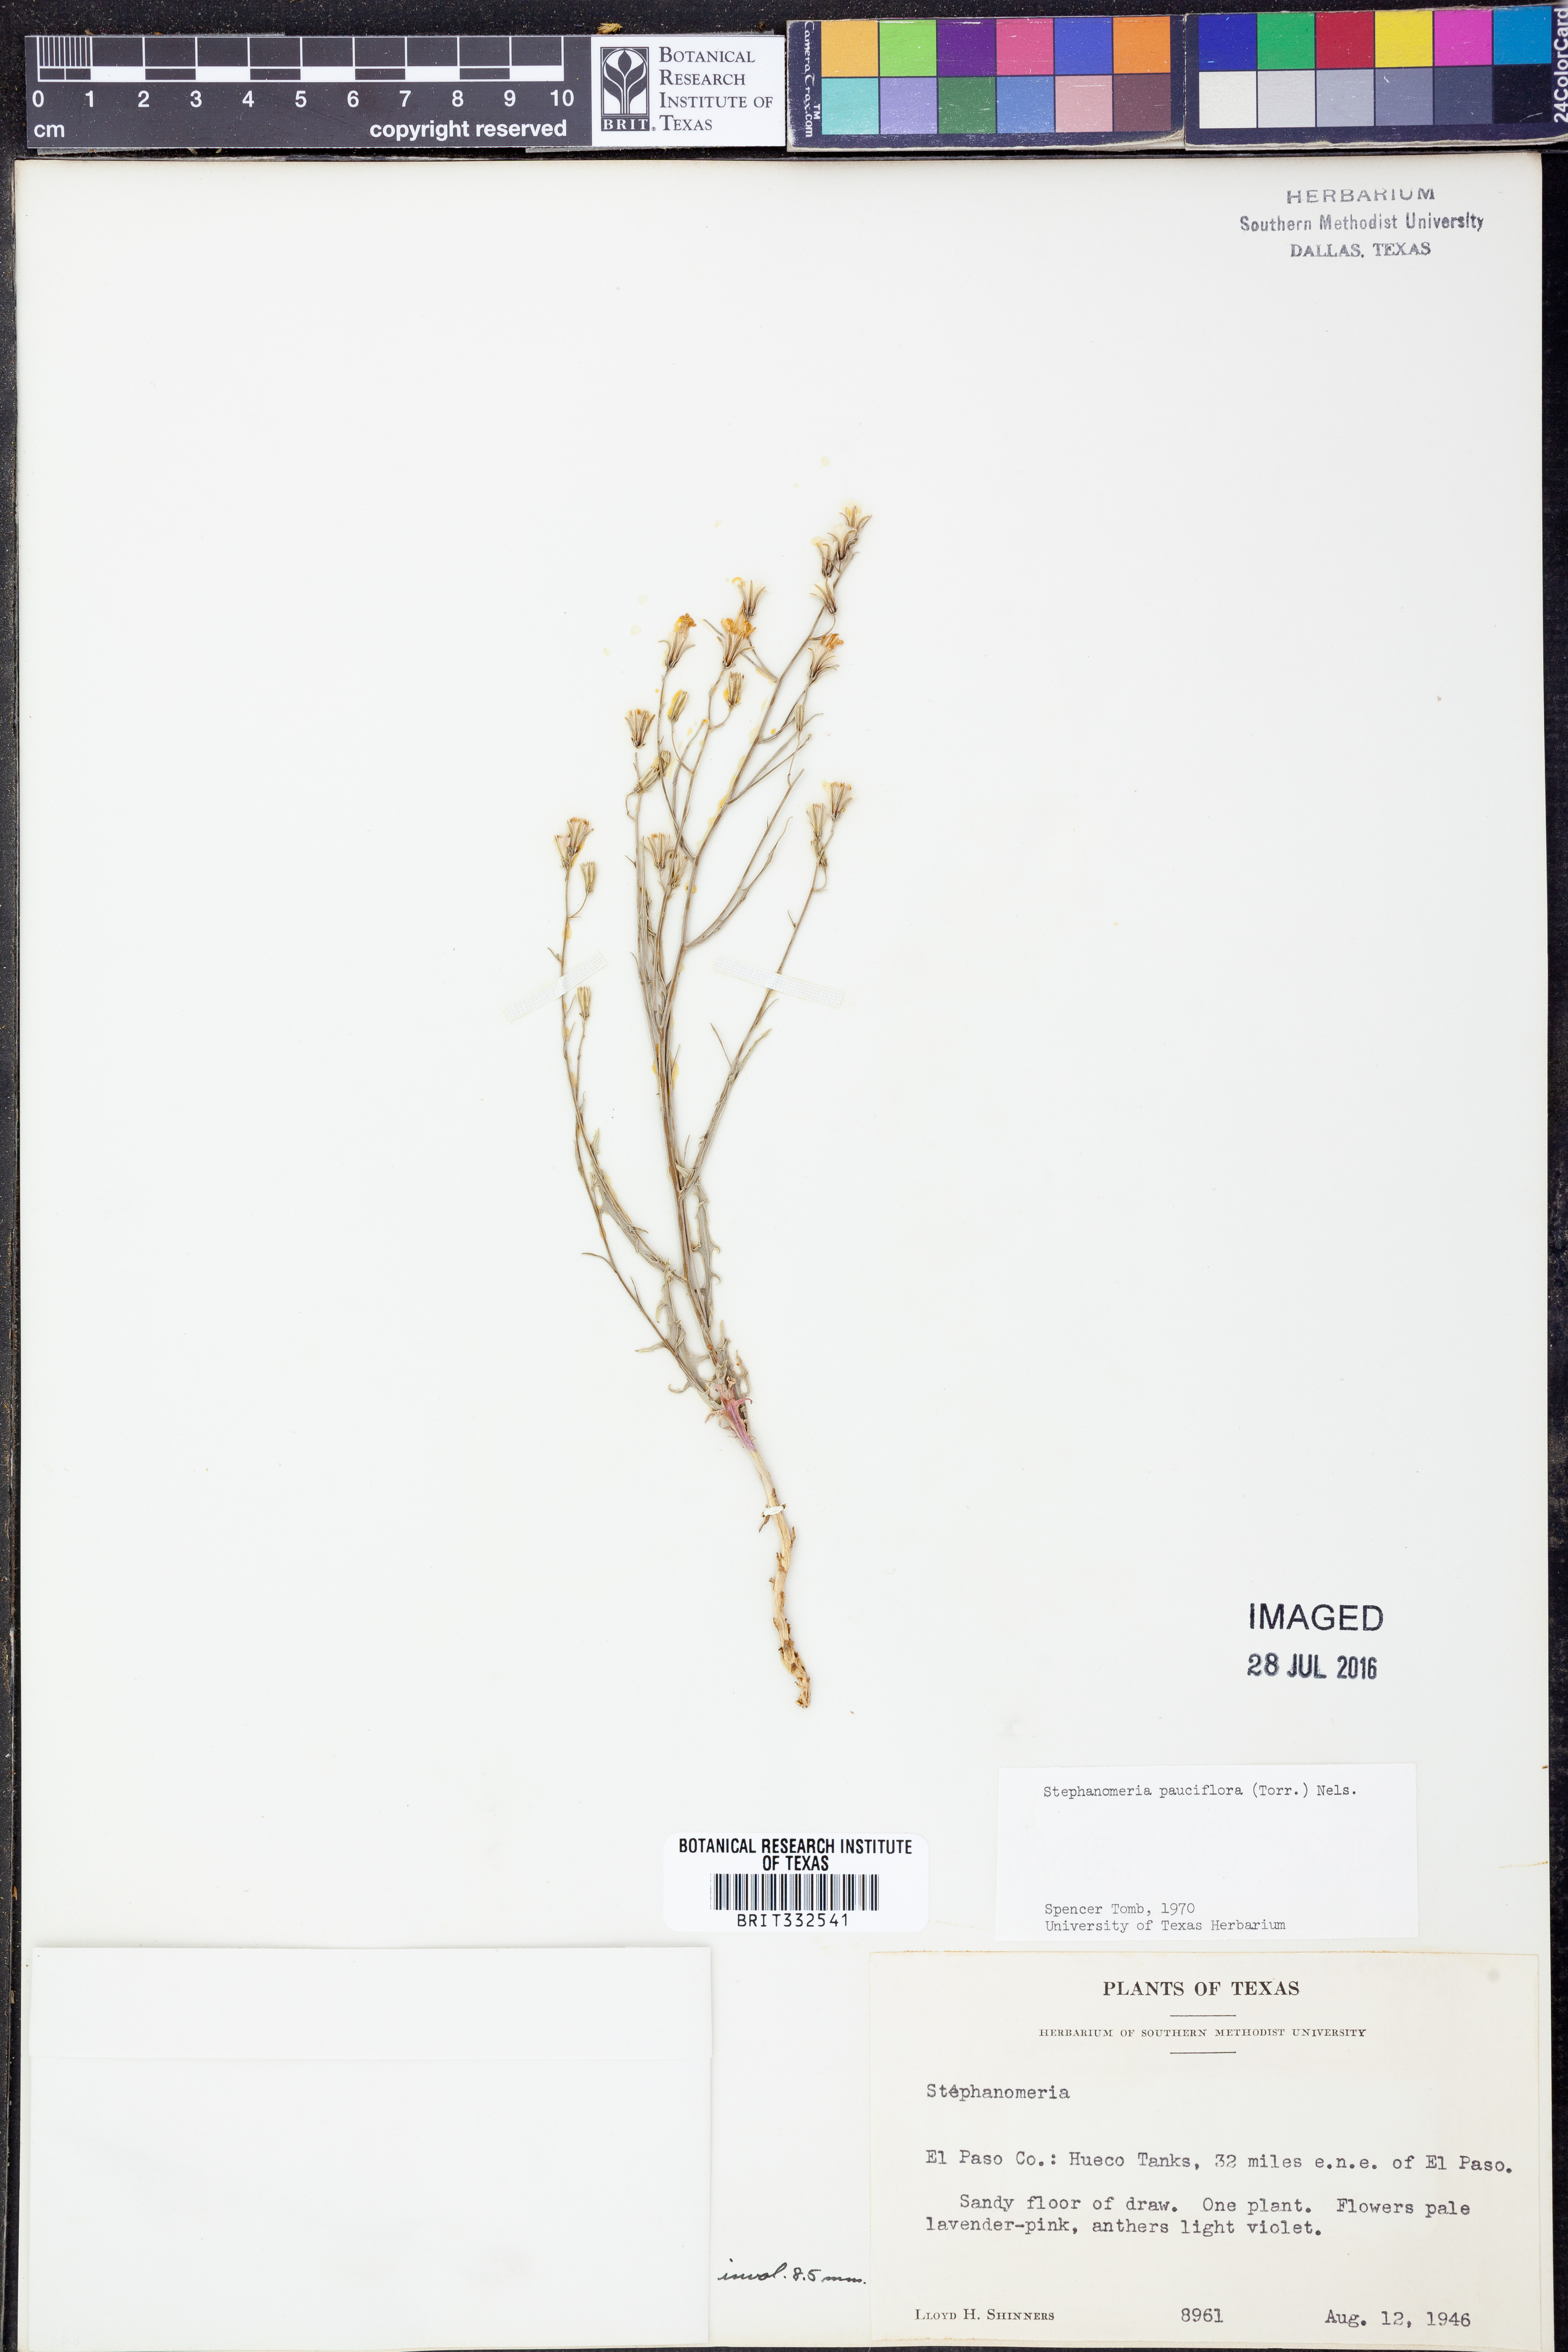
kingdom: Plantae
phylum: Tracheophyta
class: Magnoliopsida
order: Asterales
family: Asteraceae
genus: Stephanomeria
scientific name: Stephanomeria pauciflora
